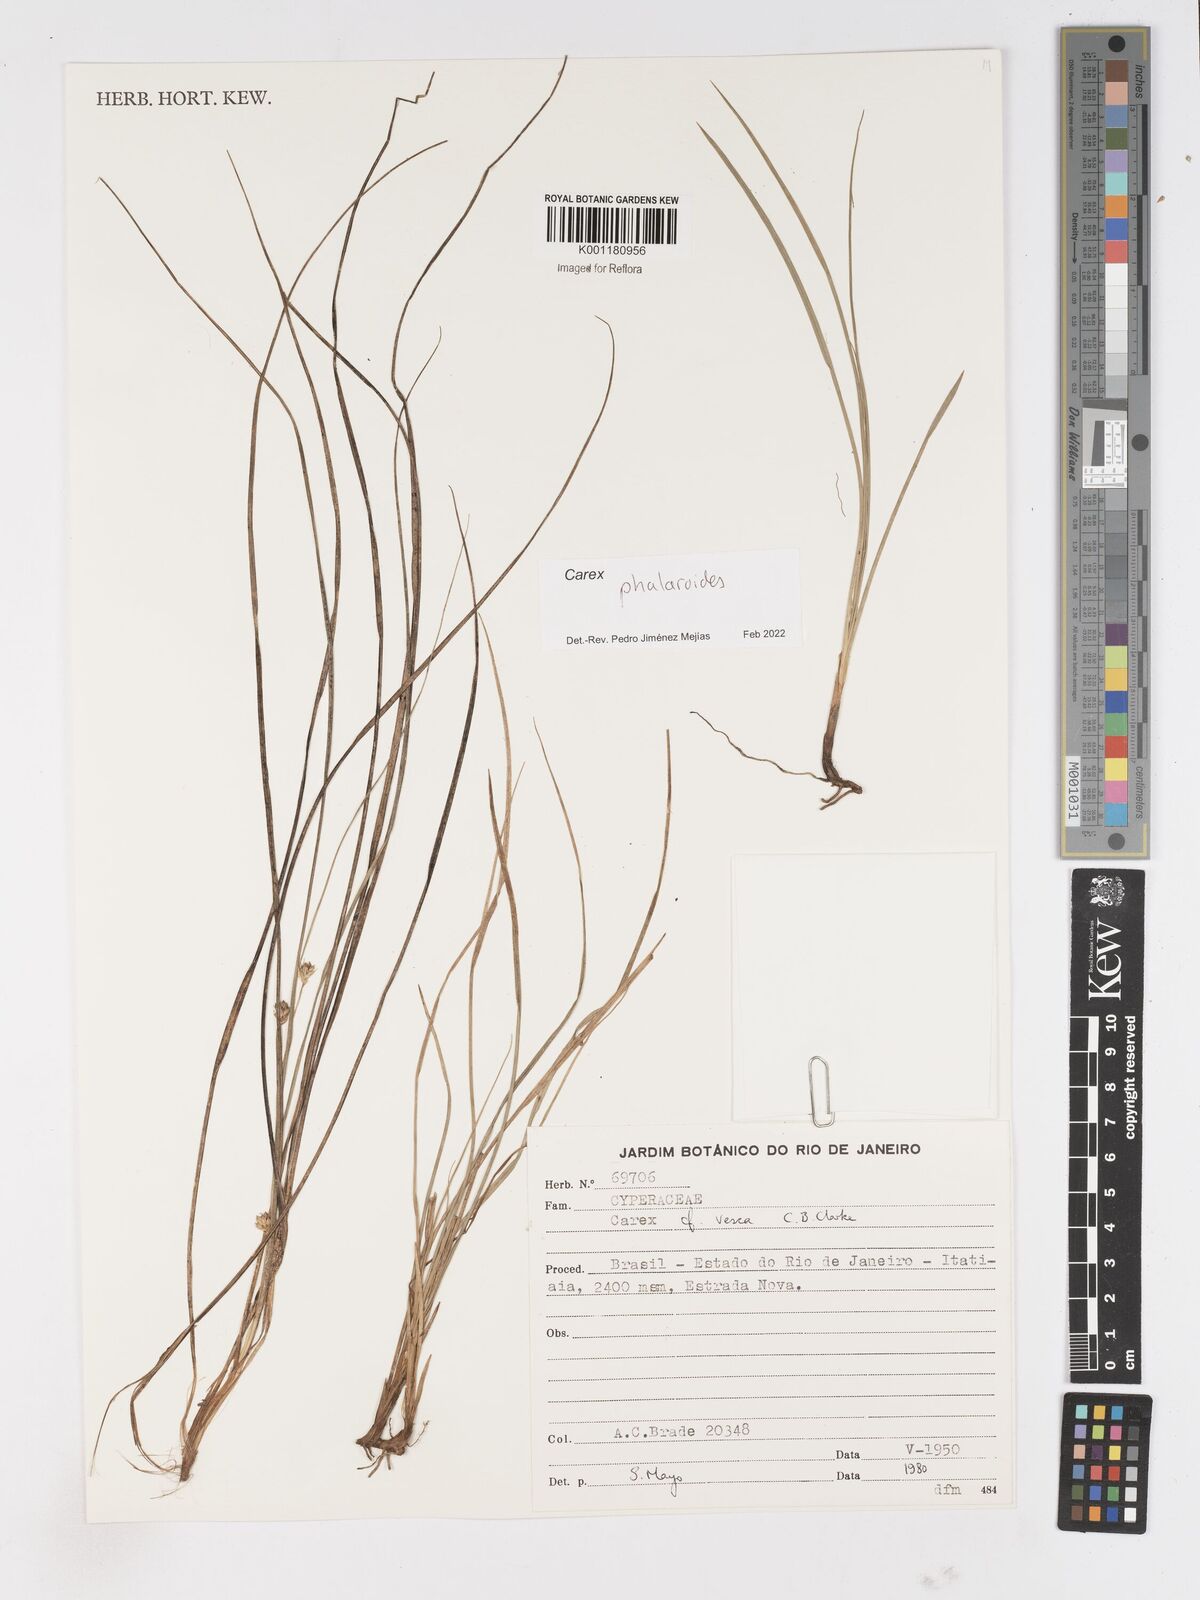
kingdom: Plantae
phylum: Tracheophyta
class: Liliopsida
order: Poales
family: Cyperaceae
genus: Carex
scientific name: Carex phalaroides
